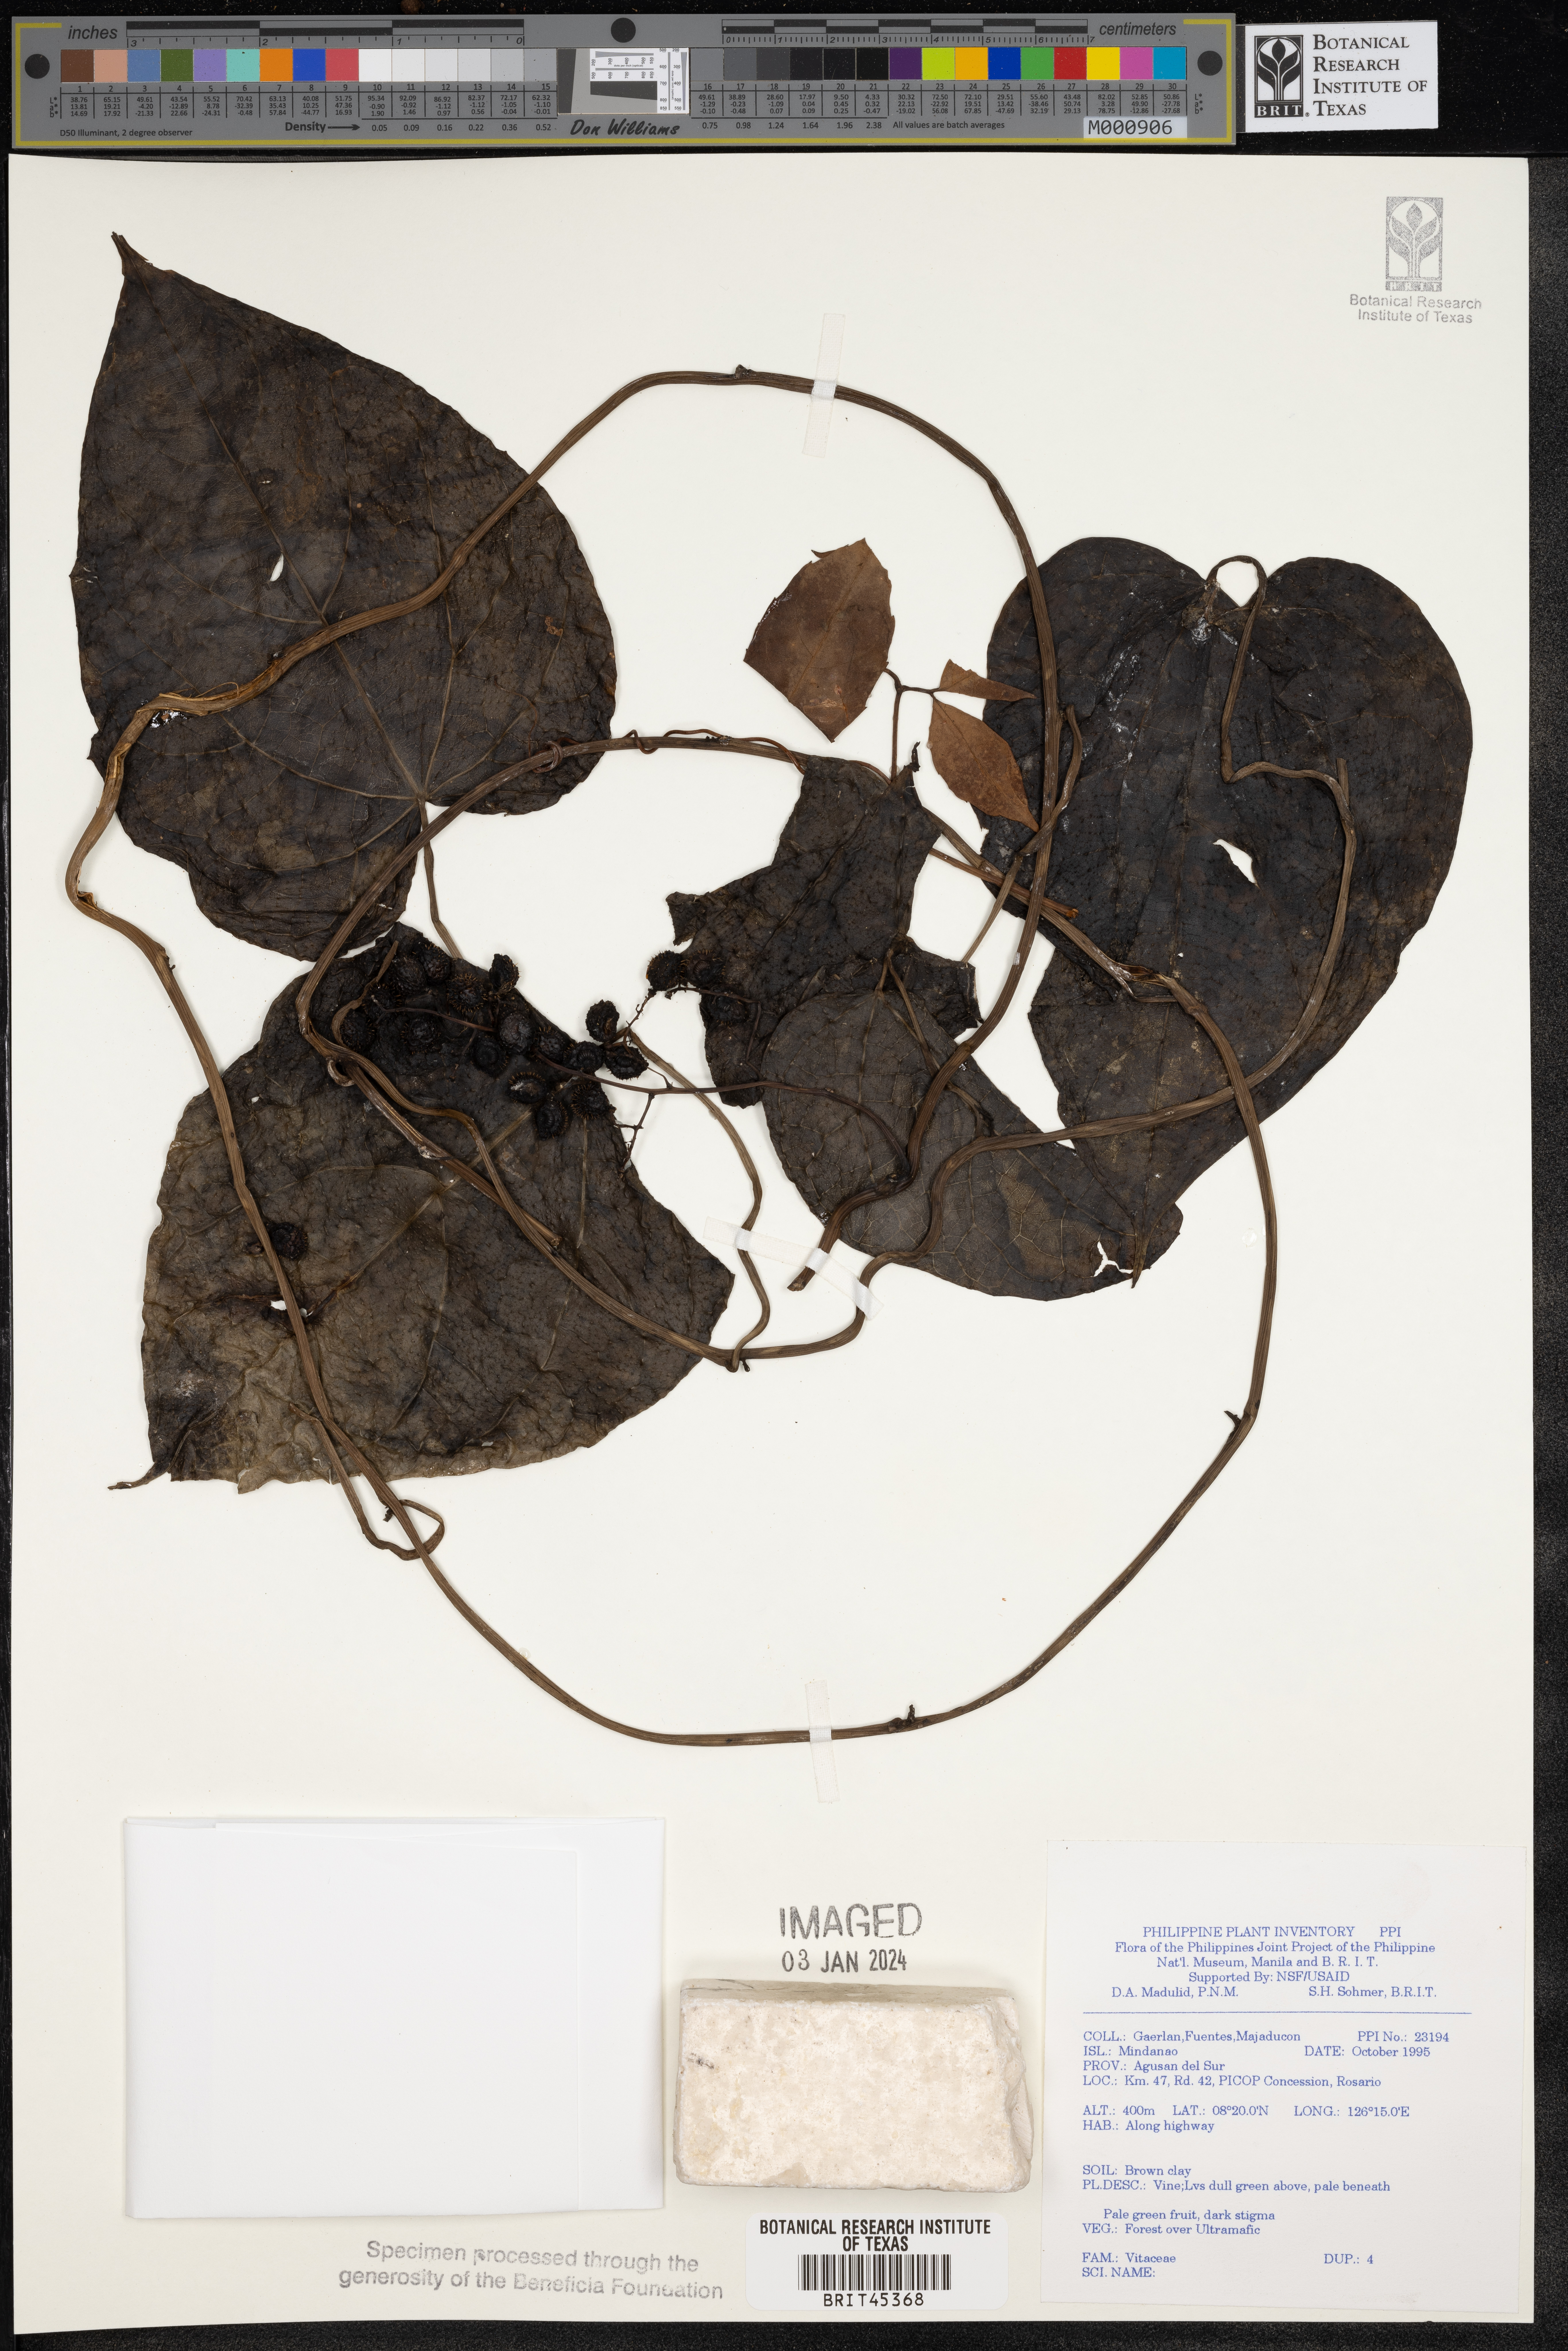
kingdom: Plantae
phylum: Tracheophyta
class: Magnoliopsida
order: Vitales
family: Vitaceae
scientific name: Vitaceae
